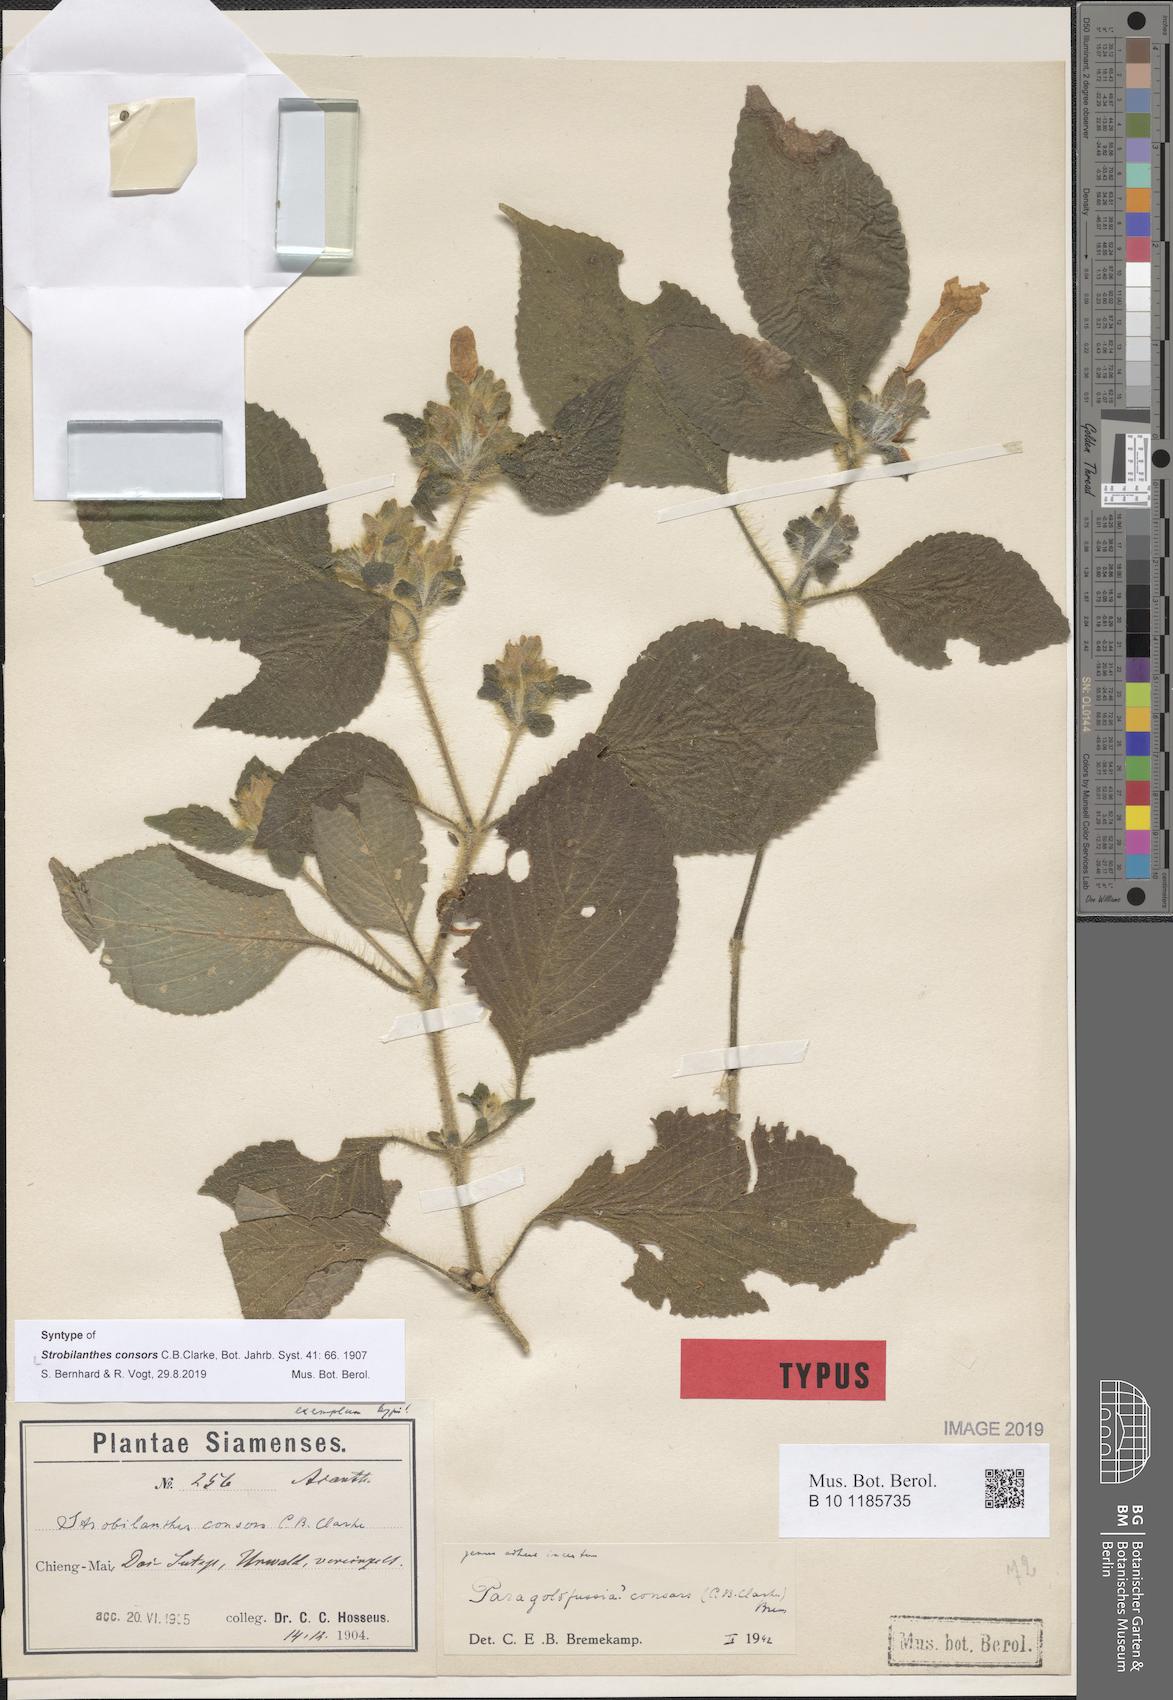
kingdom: Plantae
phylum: Tracheophyta
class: Magnoliopsida
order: Lamiales
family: Acanthaceae
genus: Strobilanthes
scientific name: Strobilanthes hossei
